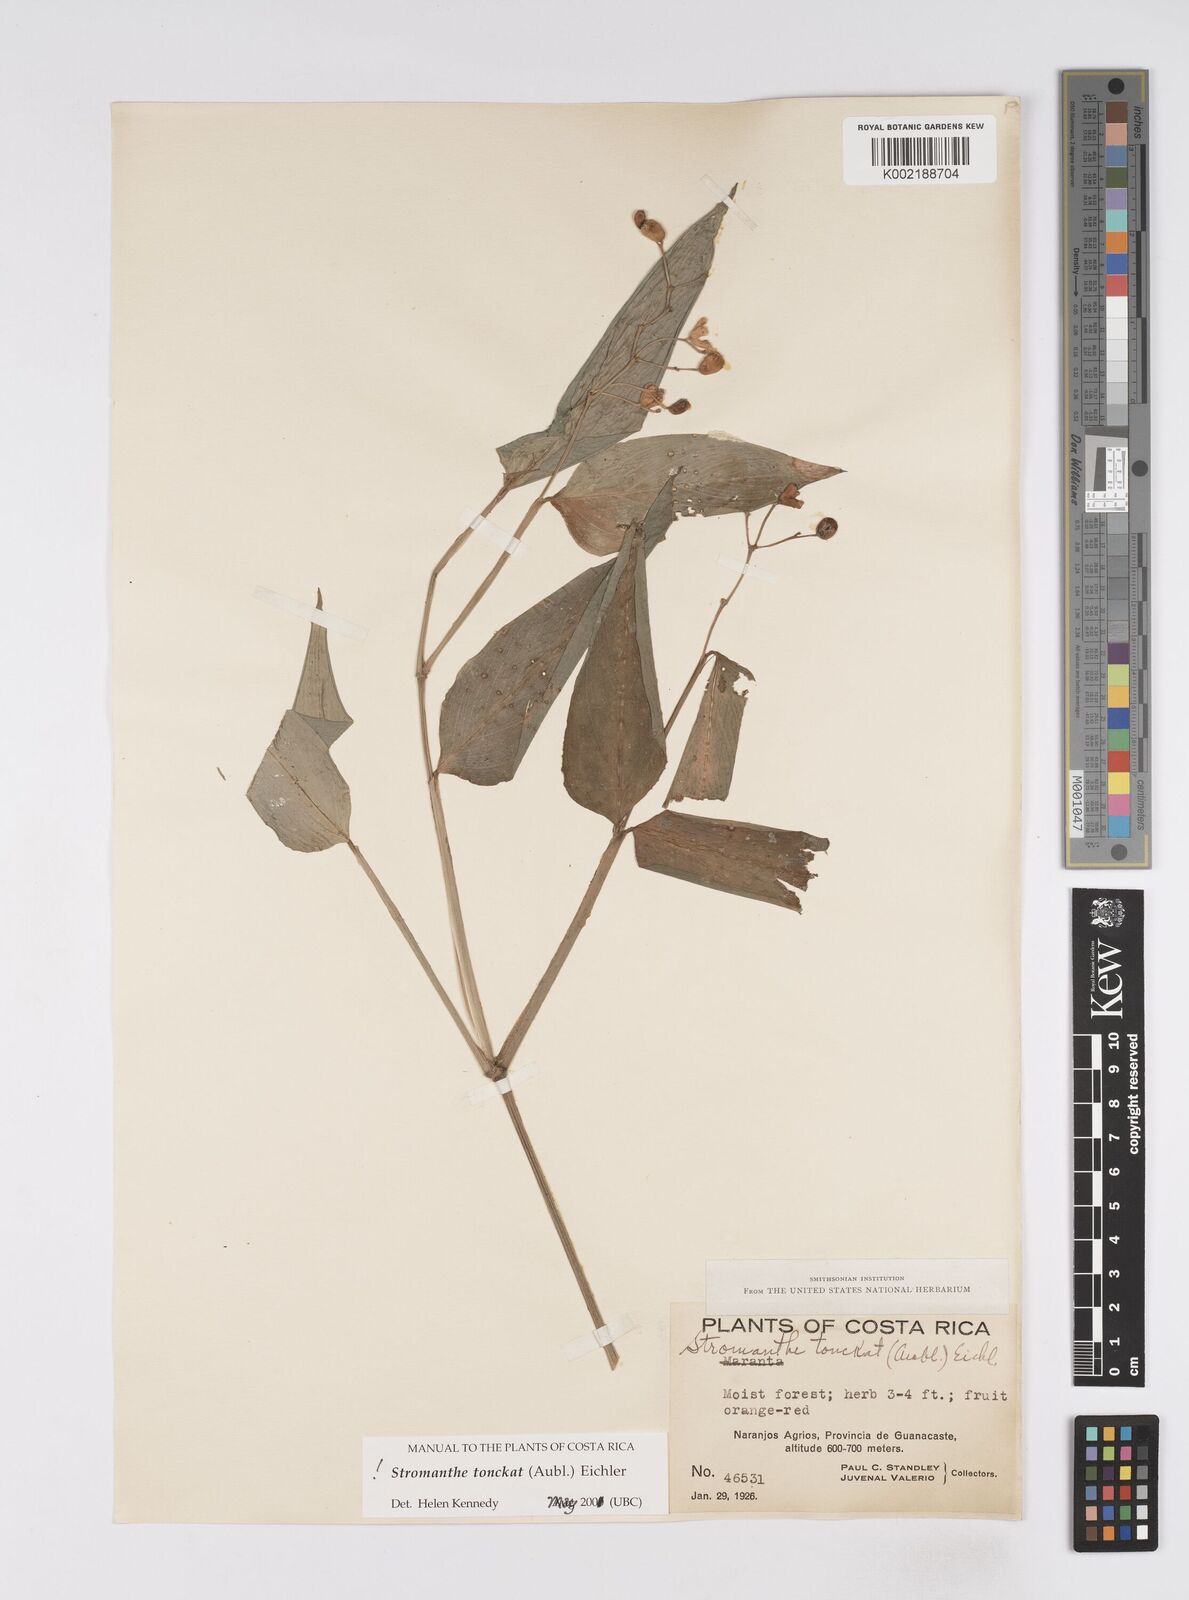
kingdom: Plantae
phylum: Tracheophyta
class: Liliopsida
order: Zingiberales
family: Marantaceae
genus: Stromanthe
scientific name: Stromanthe tonckat
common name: Stromanthe
